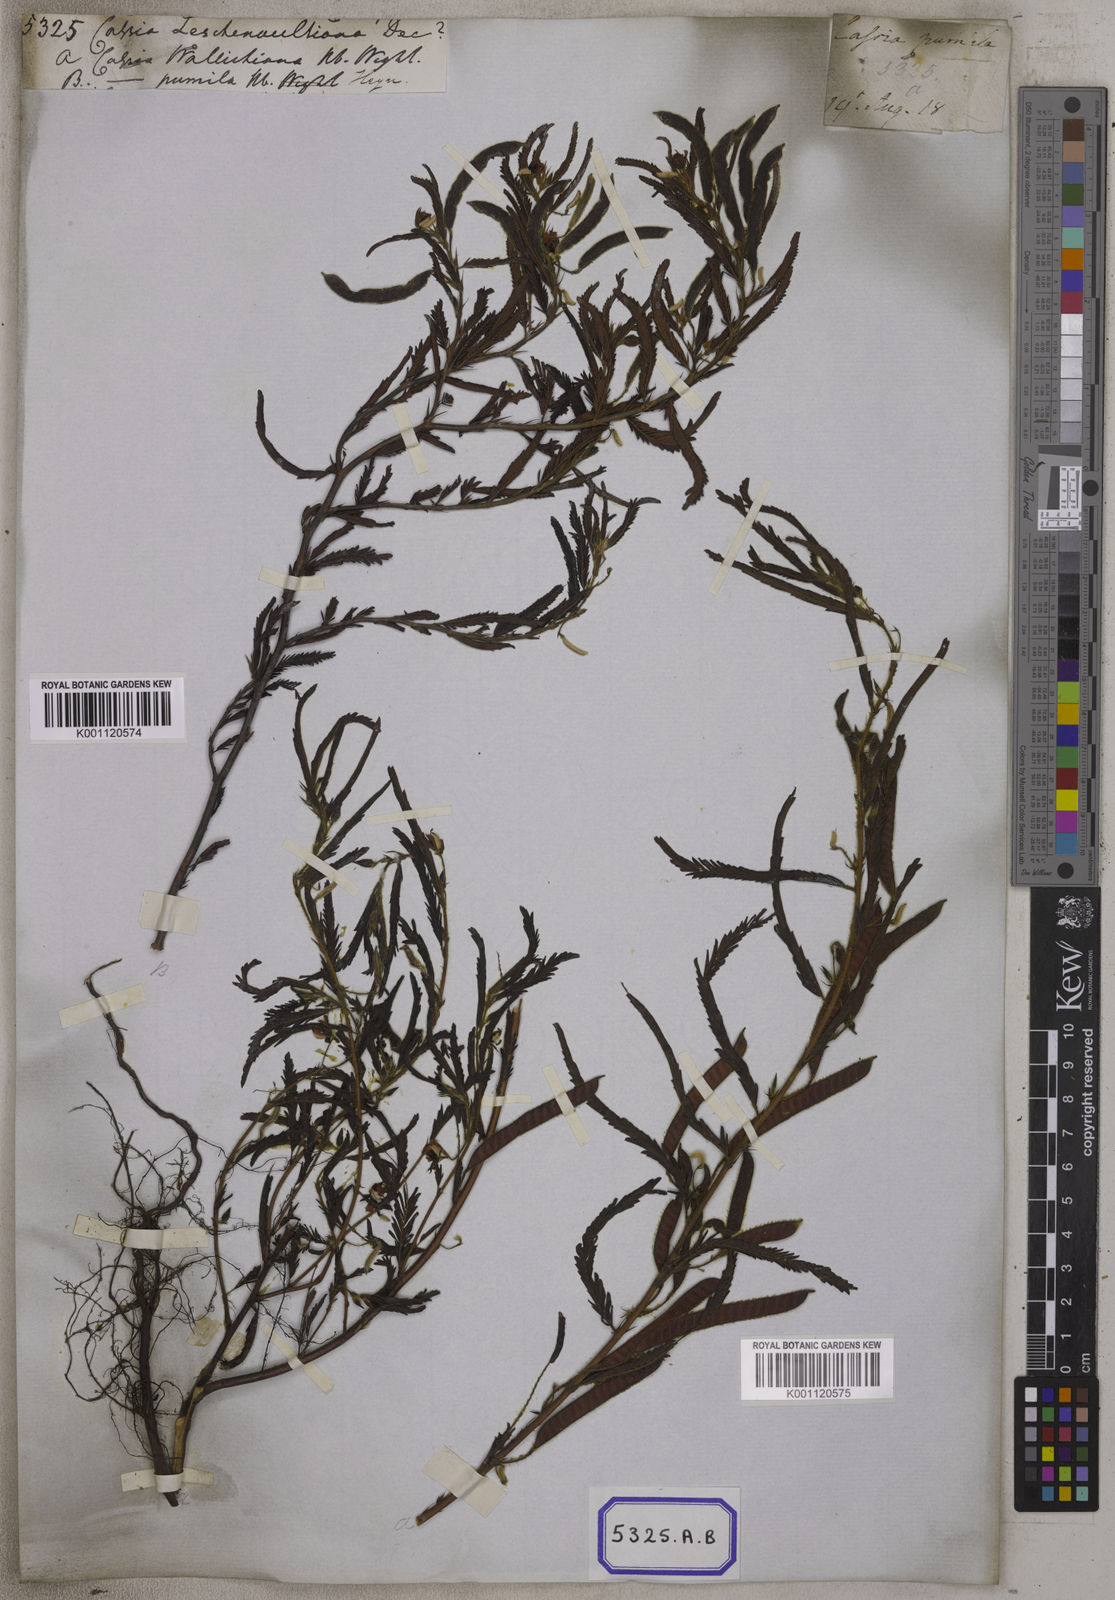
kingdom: Plantae
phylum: Tracheophyta
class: Magnoliopsida
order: Fabales
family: Fabaceae
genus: Chamaecrista
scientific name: Chamaecrista leschenaultiana
